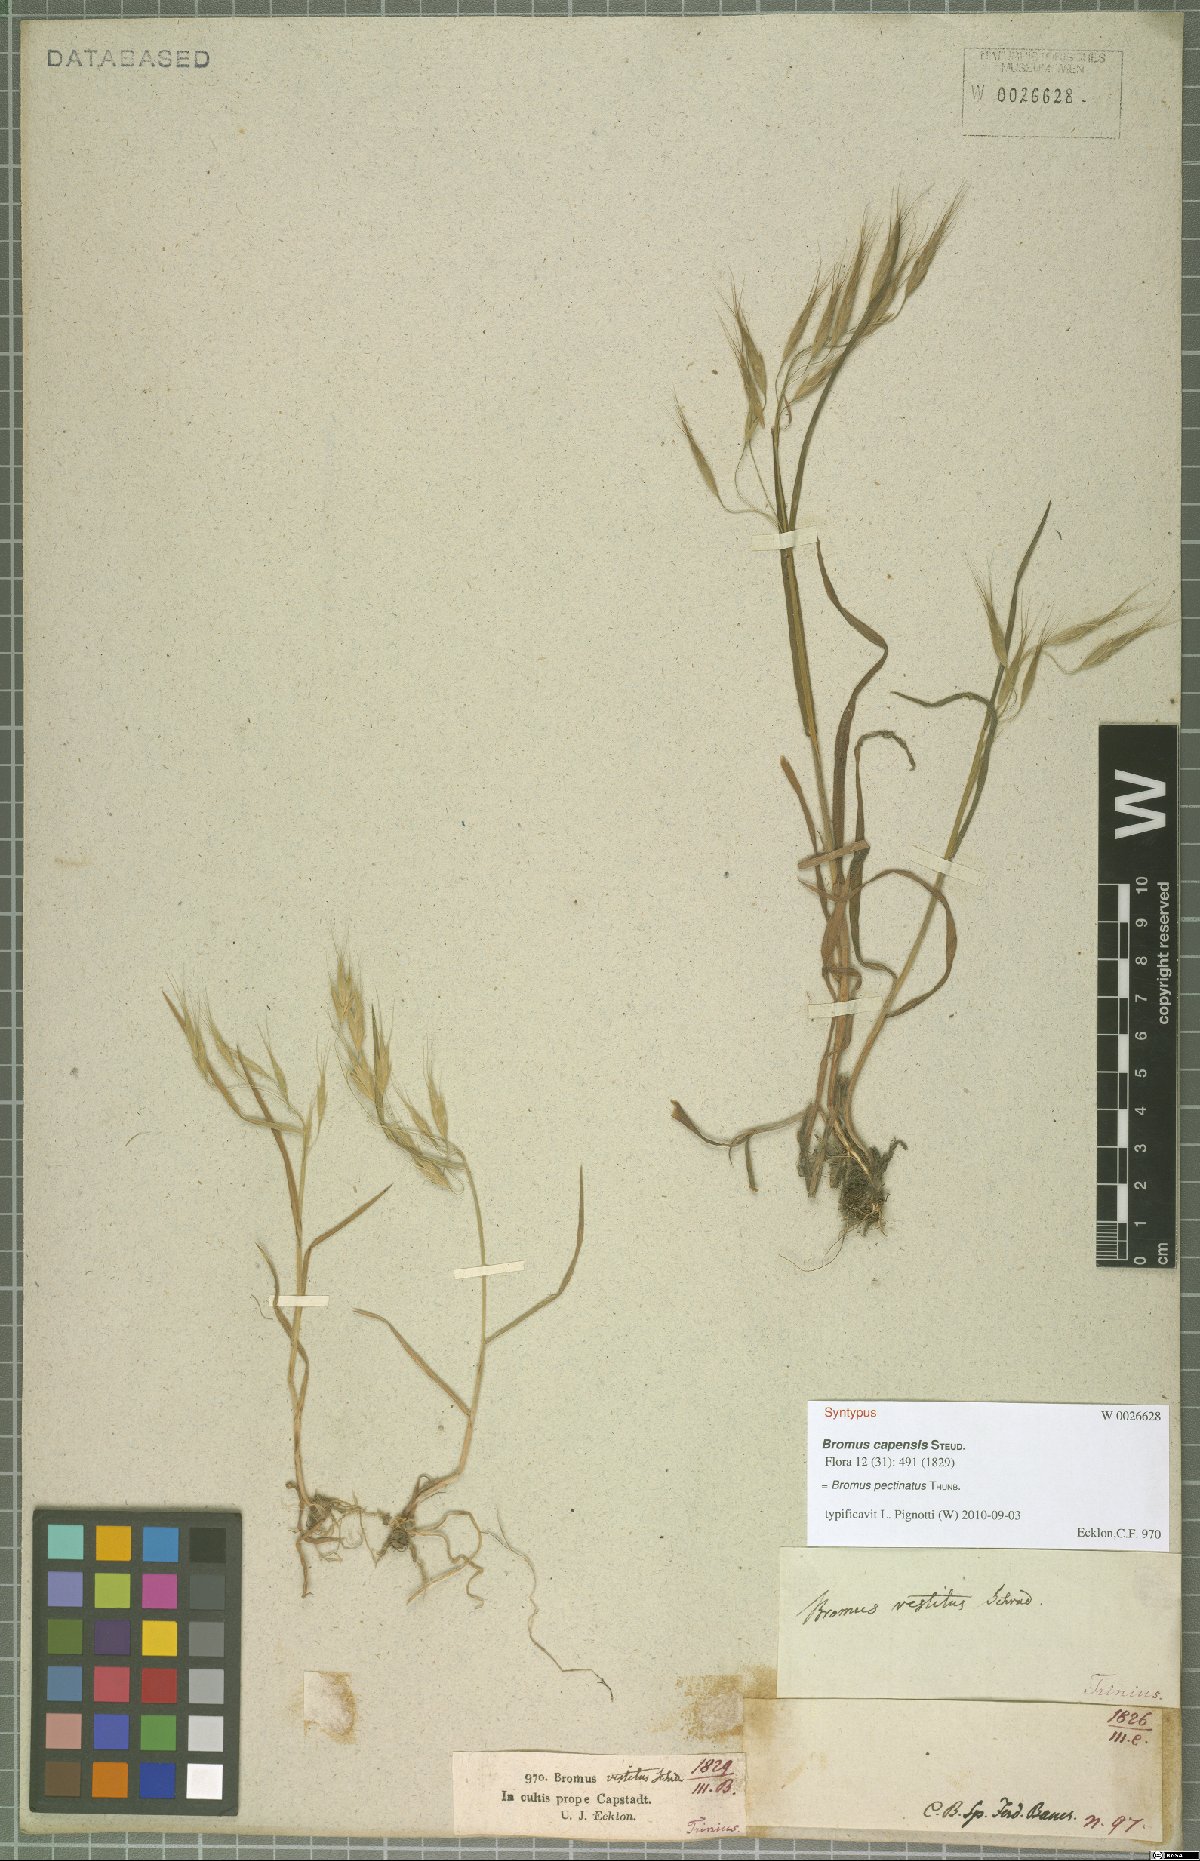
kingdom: Plantae
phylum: Tracheophyta
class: Liliopsida
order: Poales
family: Poaceae
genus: Bromus
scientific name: Bromus pectinatus
